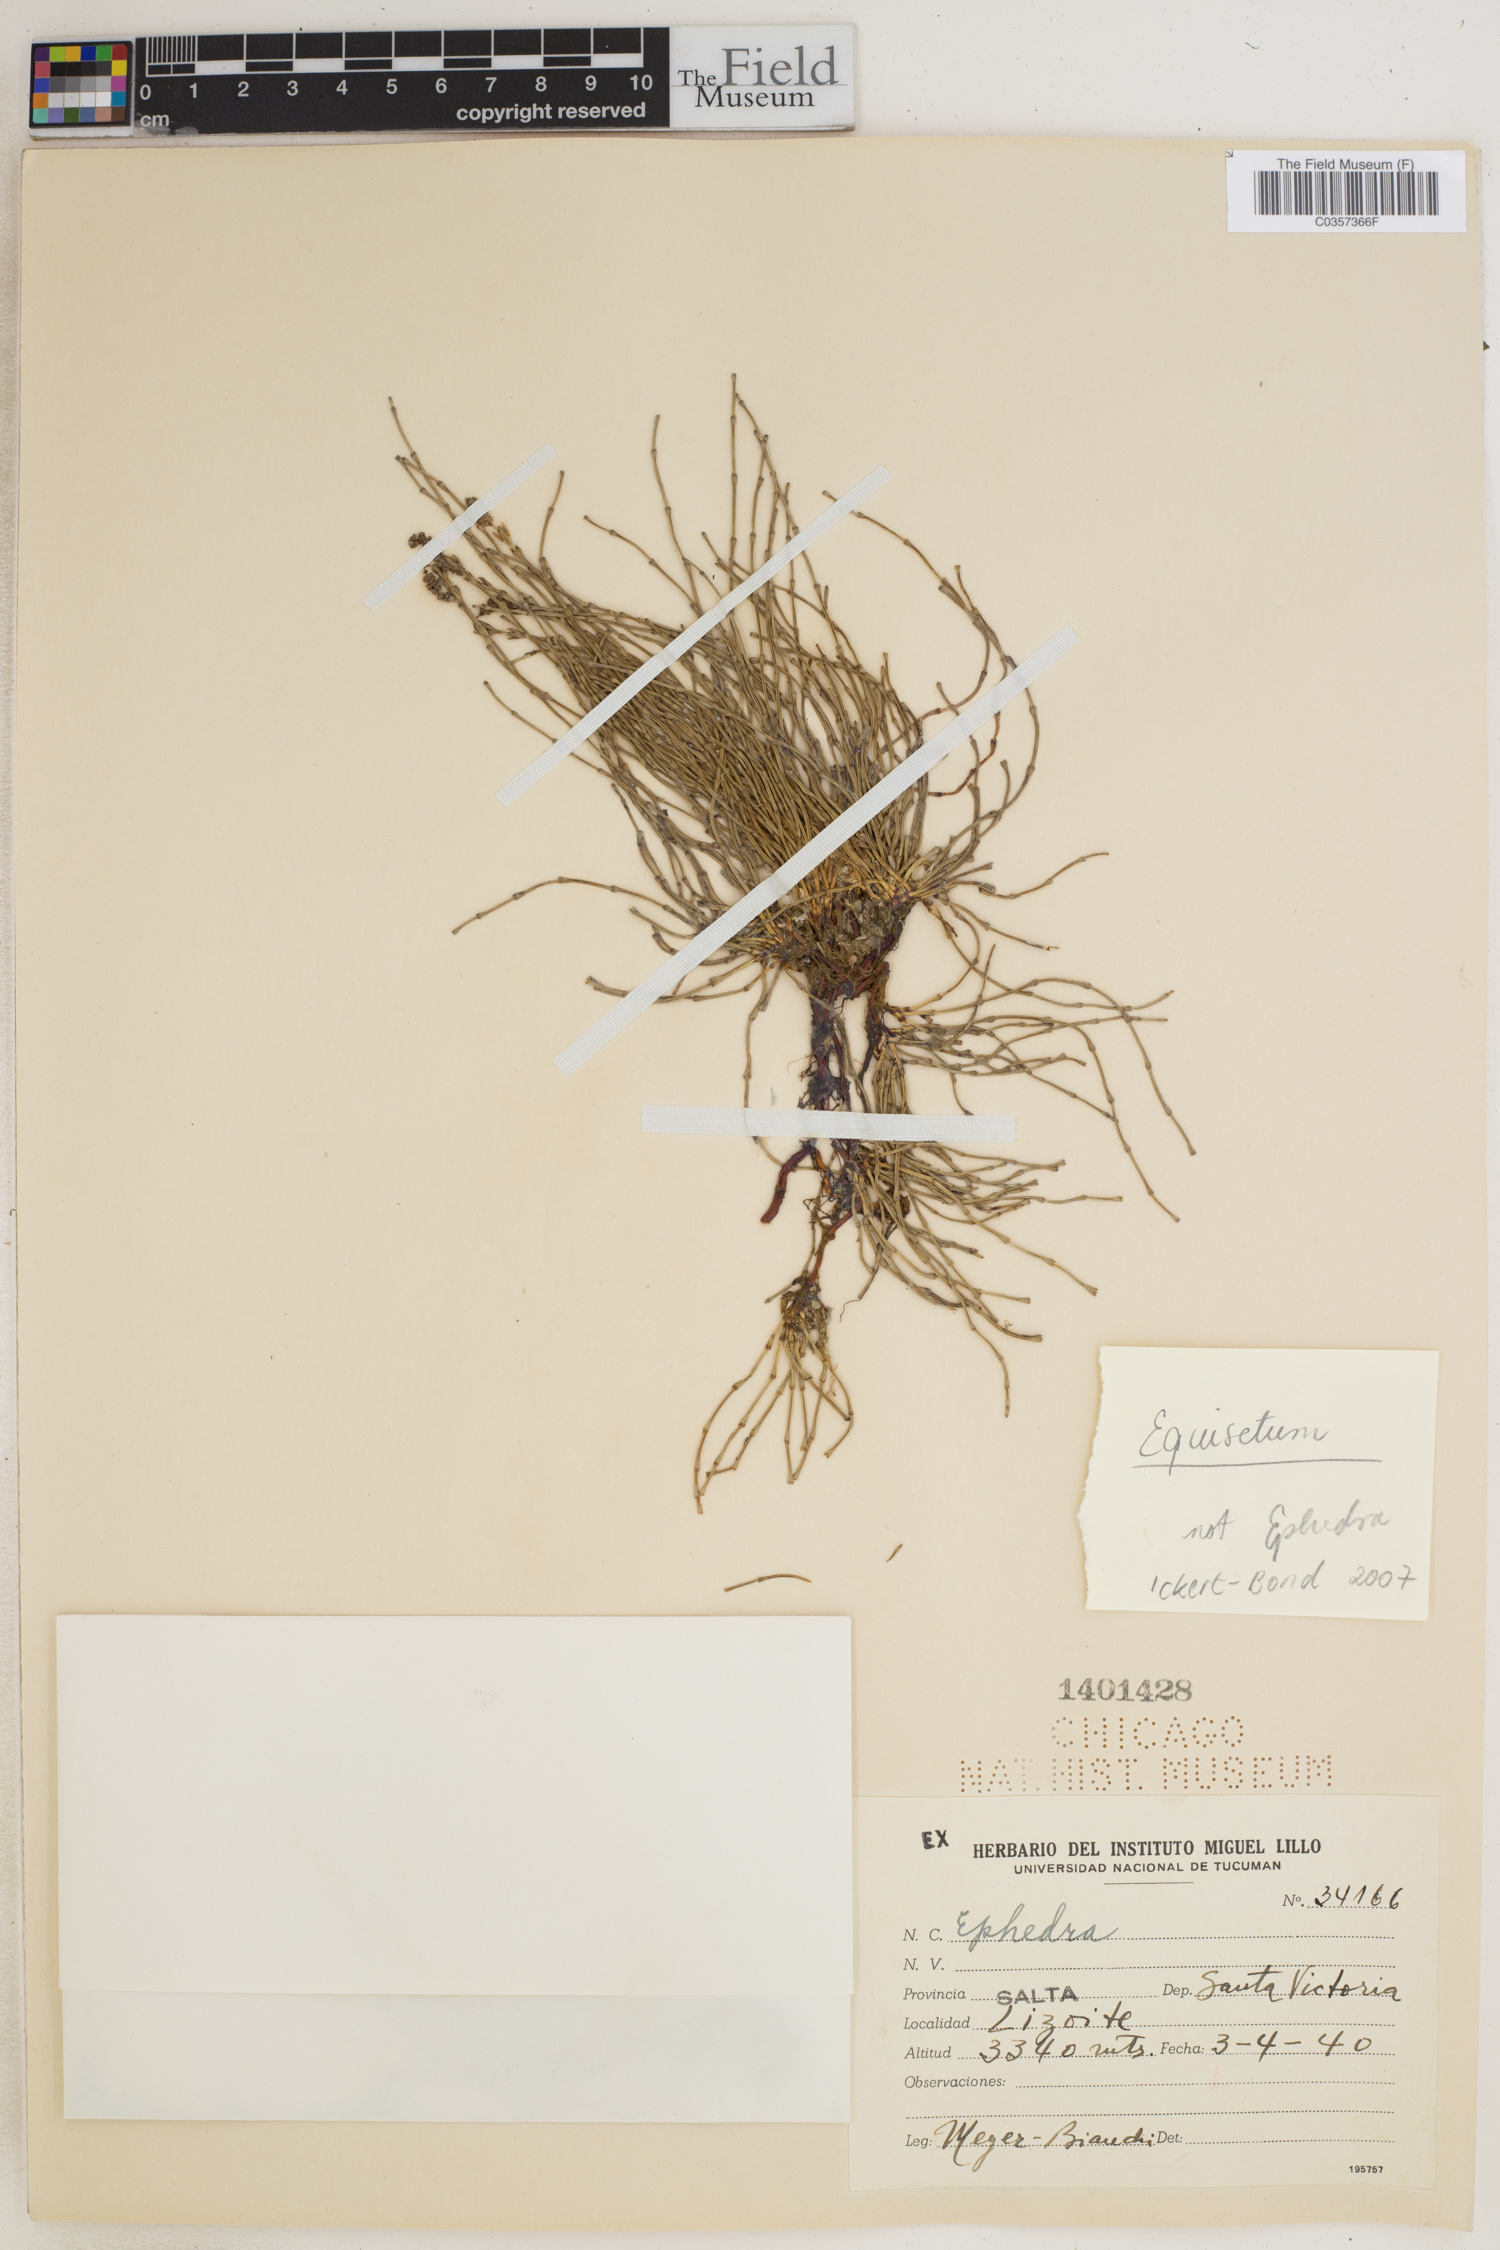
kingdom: Plantae
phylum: Tracheophyta
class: Polypodiopsida
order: Equisetales
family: Equisetaceae
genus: Equisetum
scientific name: Equisetum
